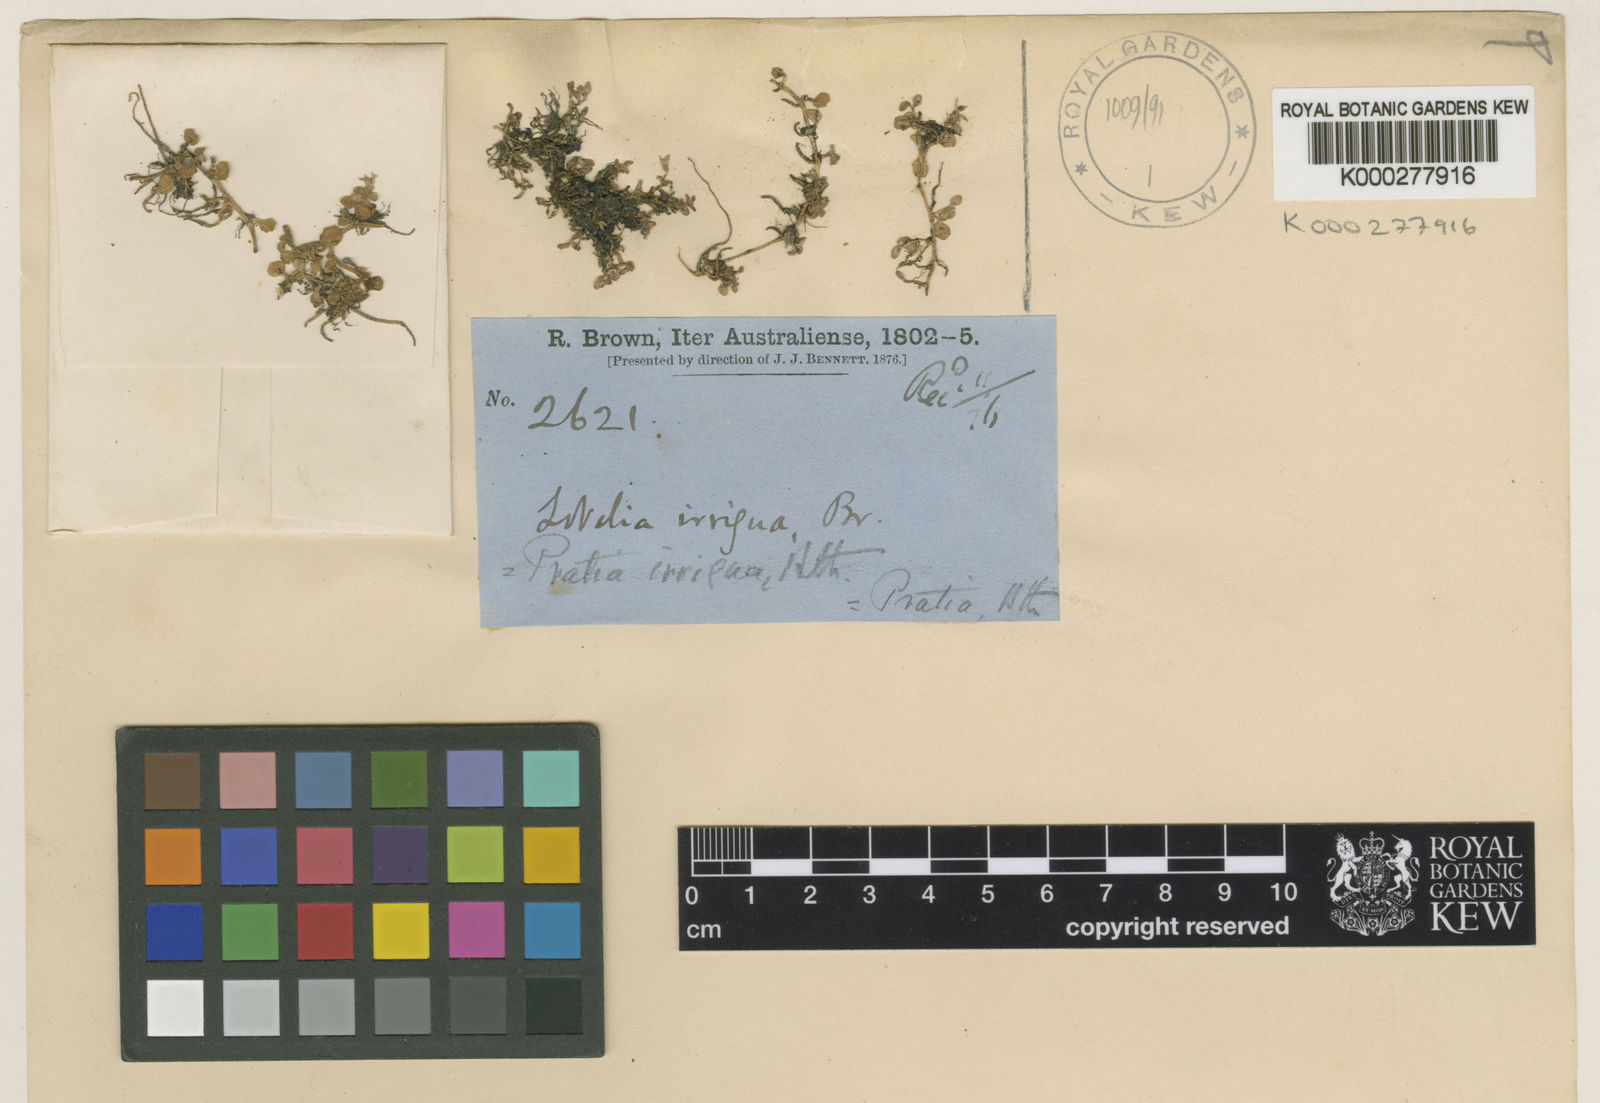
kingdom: Plantae
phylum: Tracheophyta
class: Magnoliopsida
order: Asterales
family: Campanulaceae
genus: Lobelia
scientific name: Lobelia irrigua
